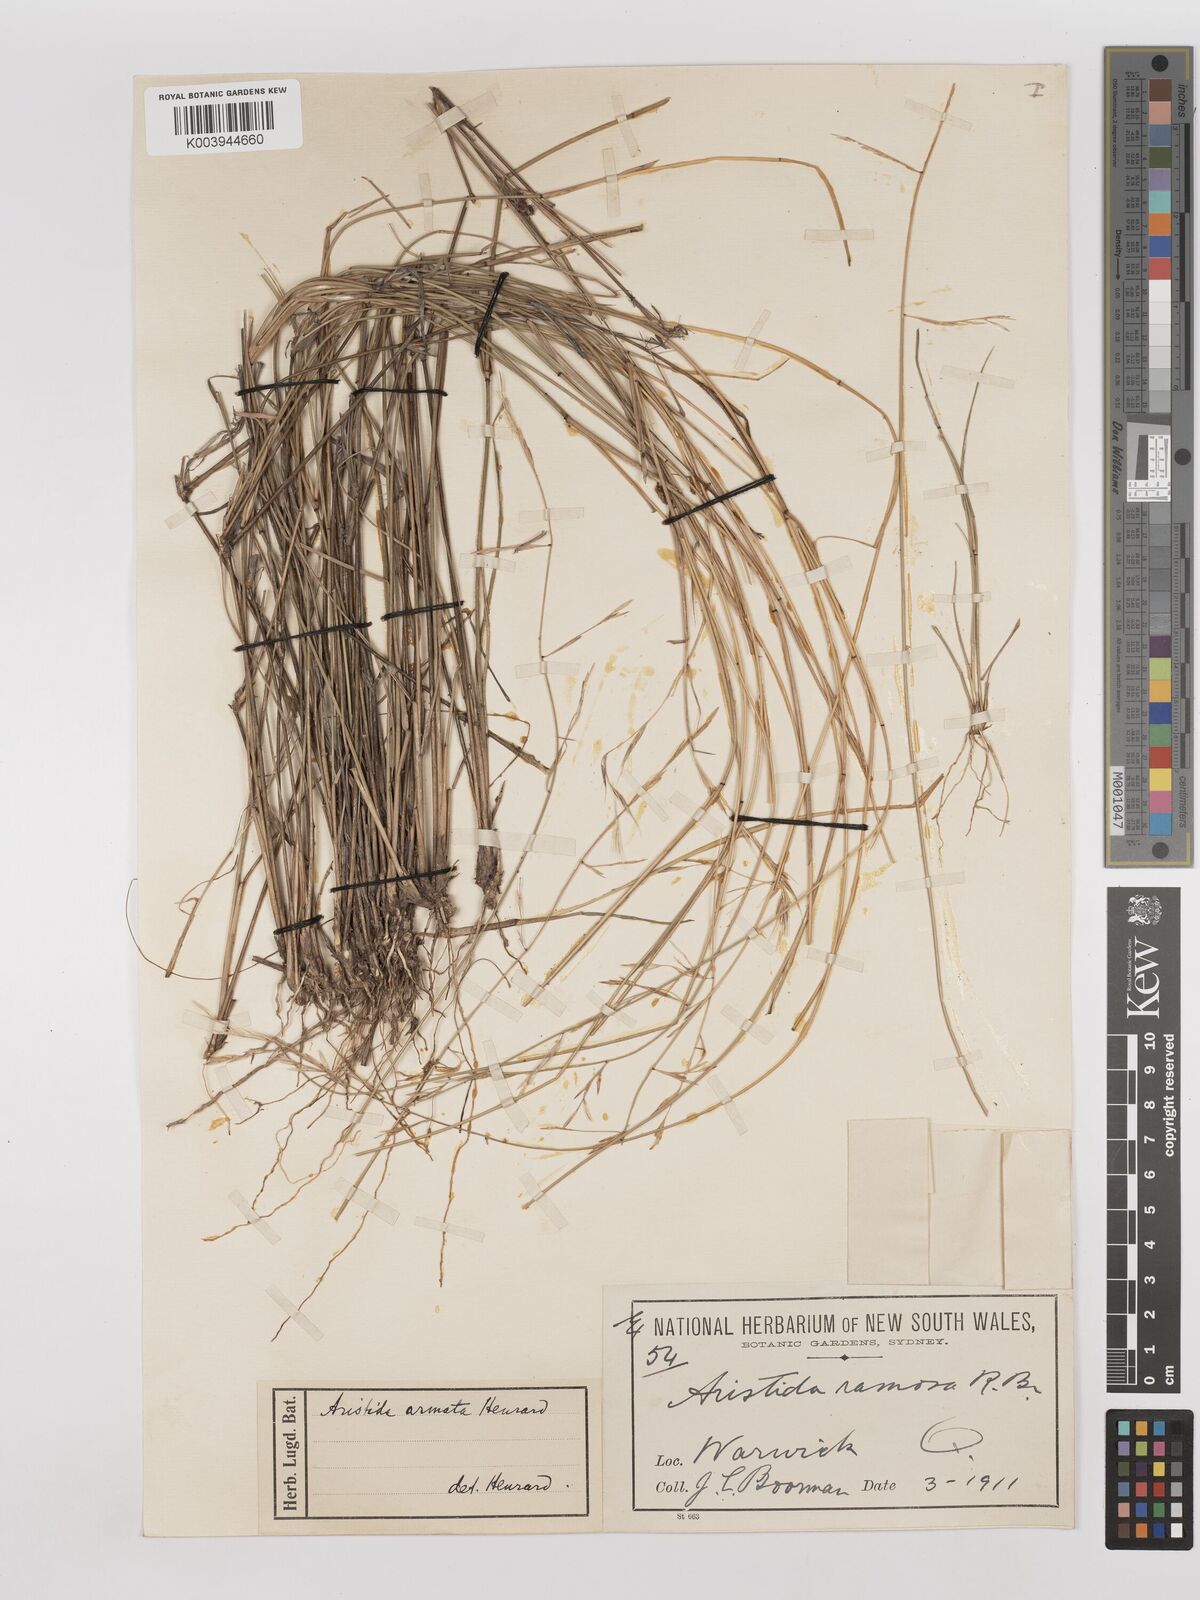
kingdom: Plantae
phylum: Tracheophyta
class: Liliopsida
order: Poales
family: Poaceae
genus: Aristida
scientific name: Aristida calycina
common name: Dark wire grass
